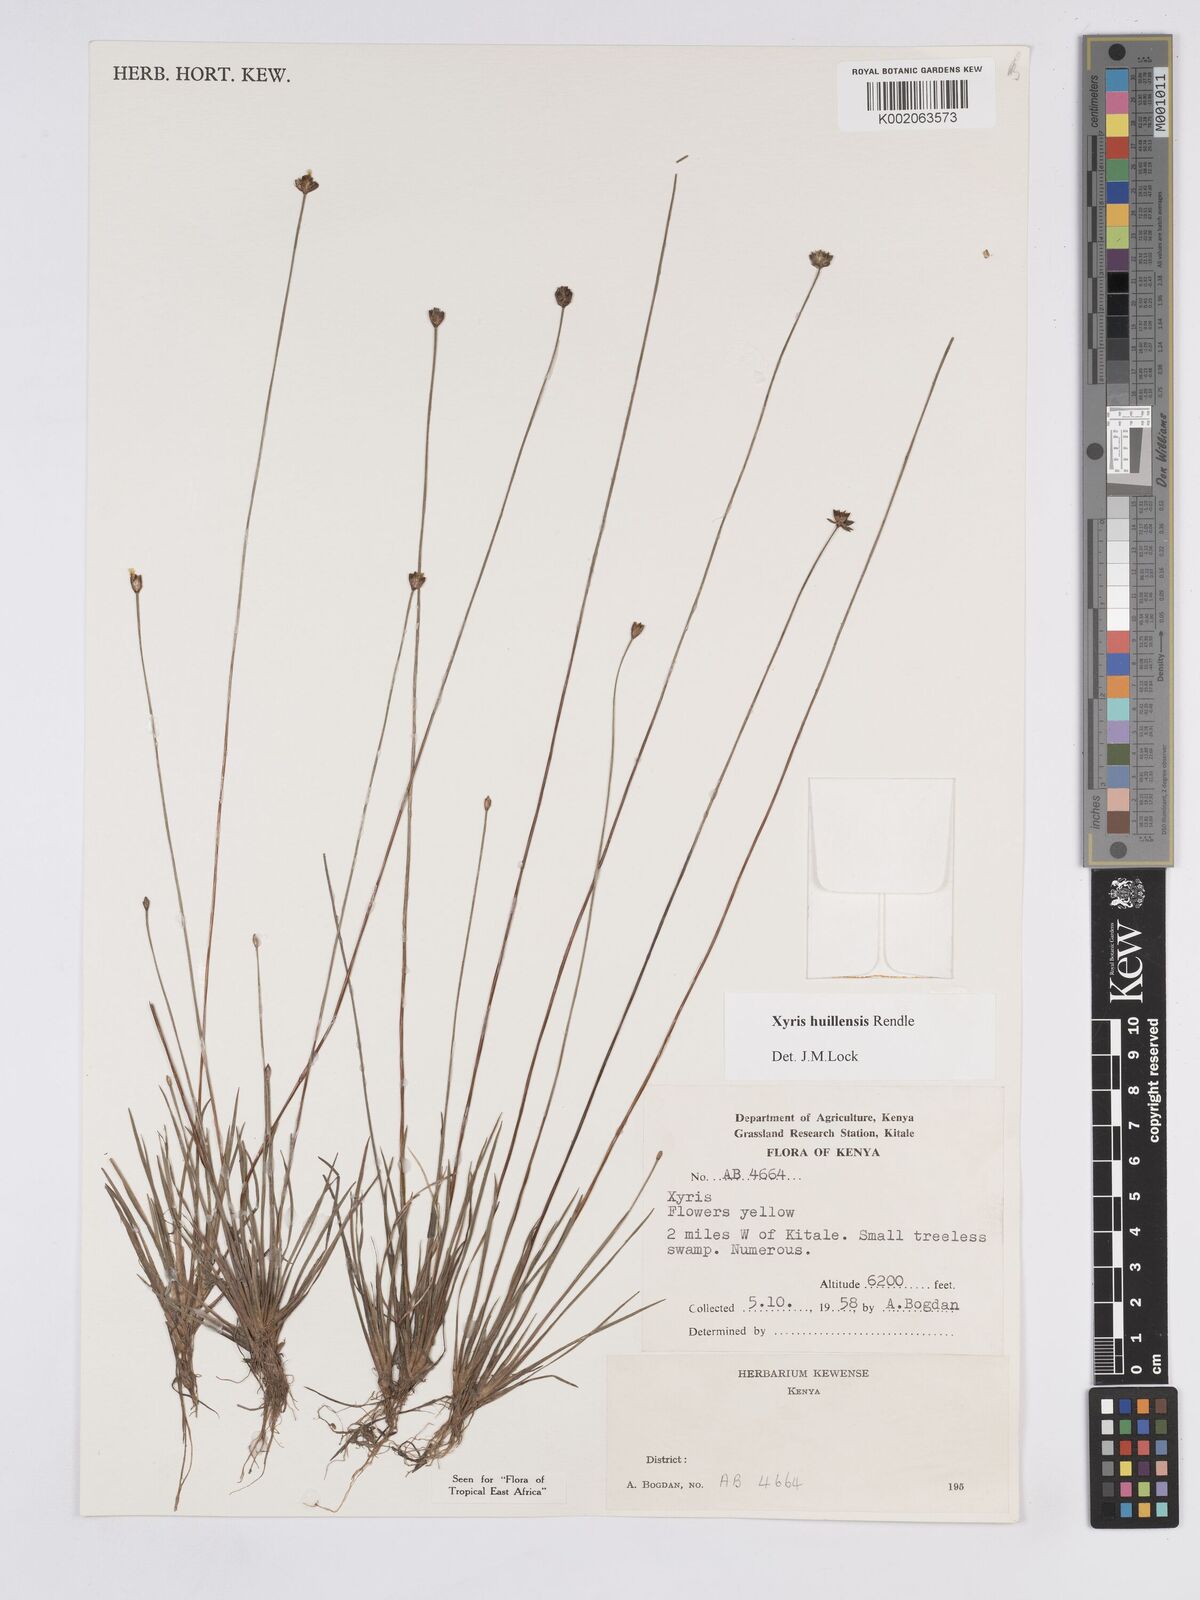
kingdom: Plantae
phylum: Tracheophyta
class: Liliopsida
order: Poales
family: Xyridaceae
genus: Xyris
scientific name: Xyris huillensis
